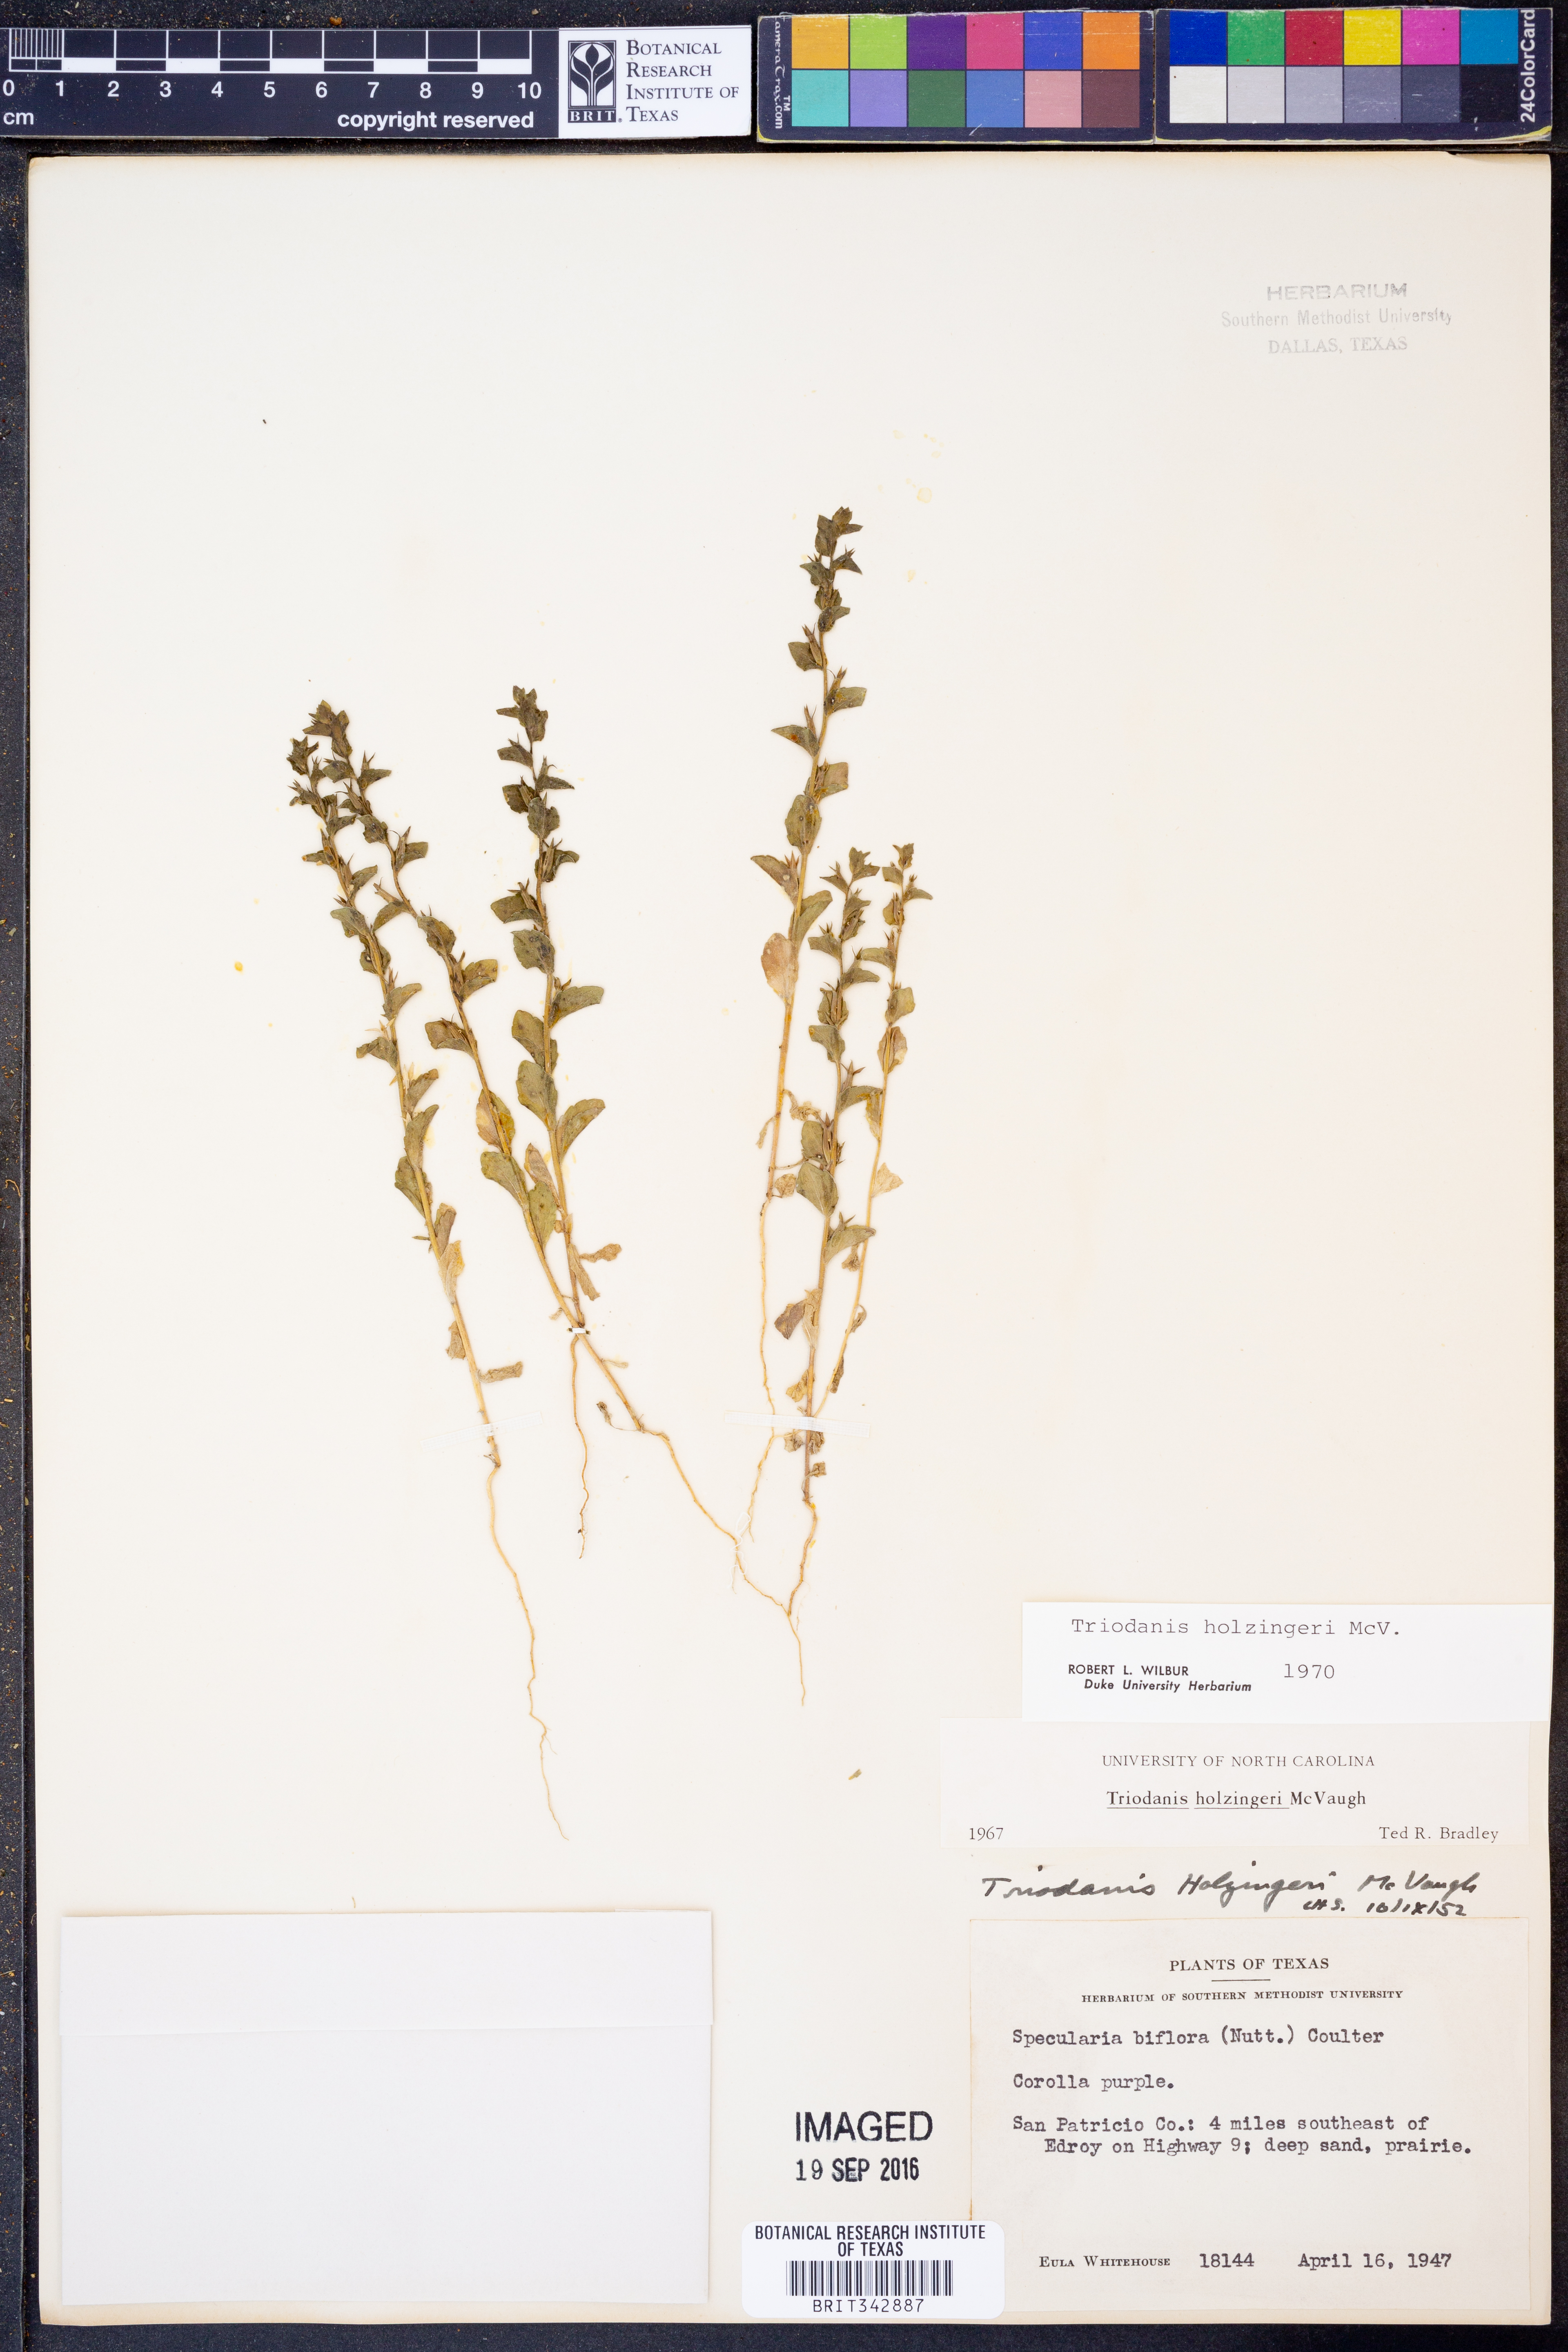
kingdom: Plantae
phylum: Tracheophyta
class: Magnoliopsida
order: Asterales
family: Campanulaceae
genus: Triodanis
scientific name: Triodanis holzingeri
